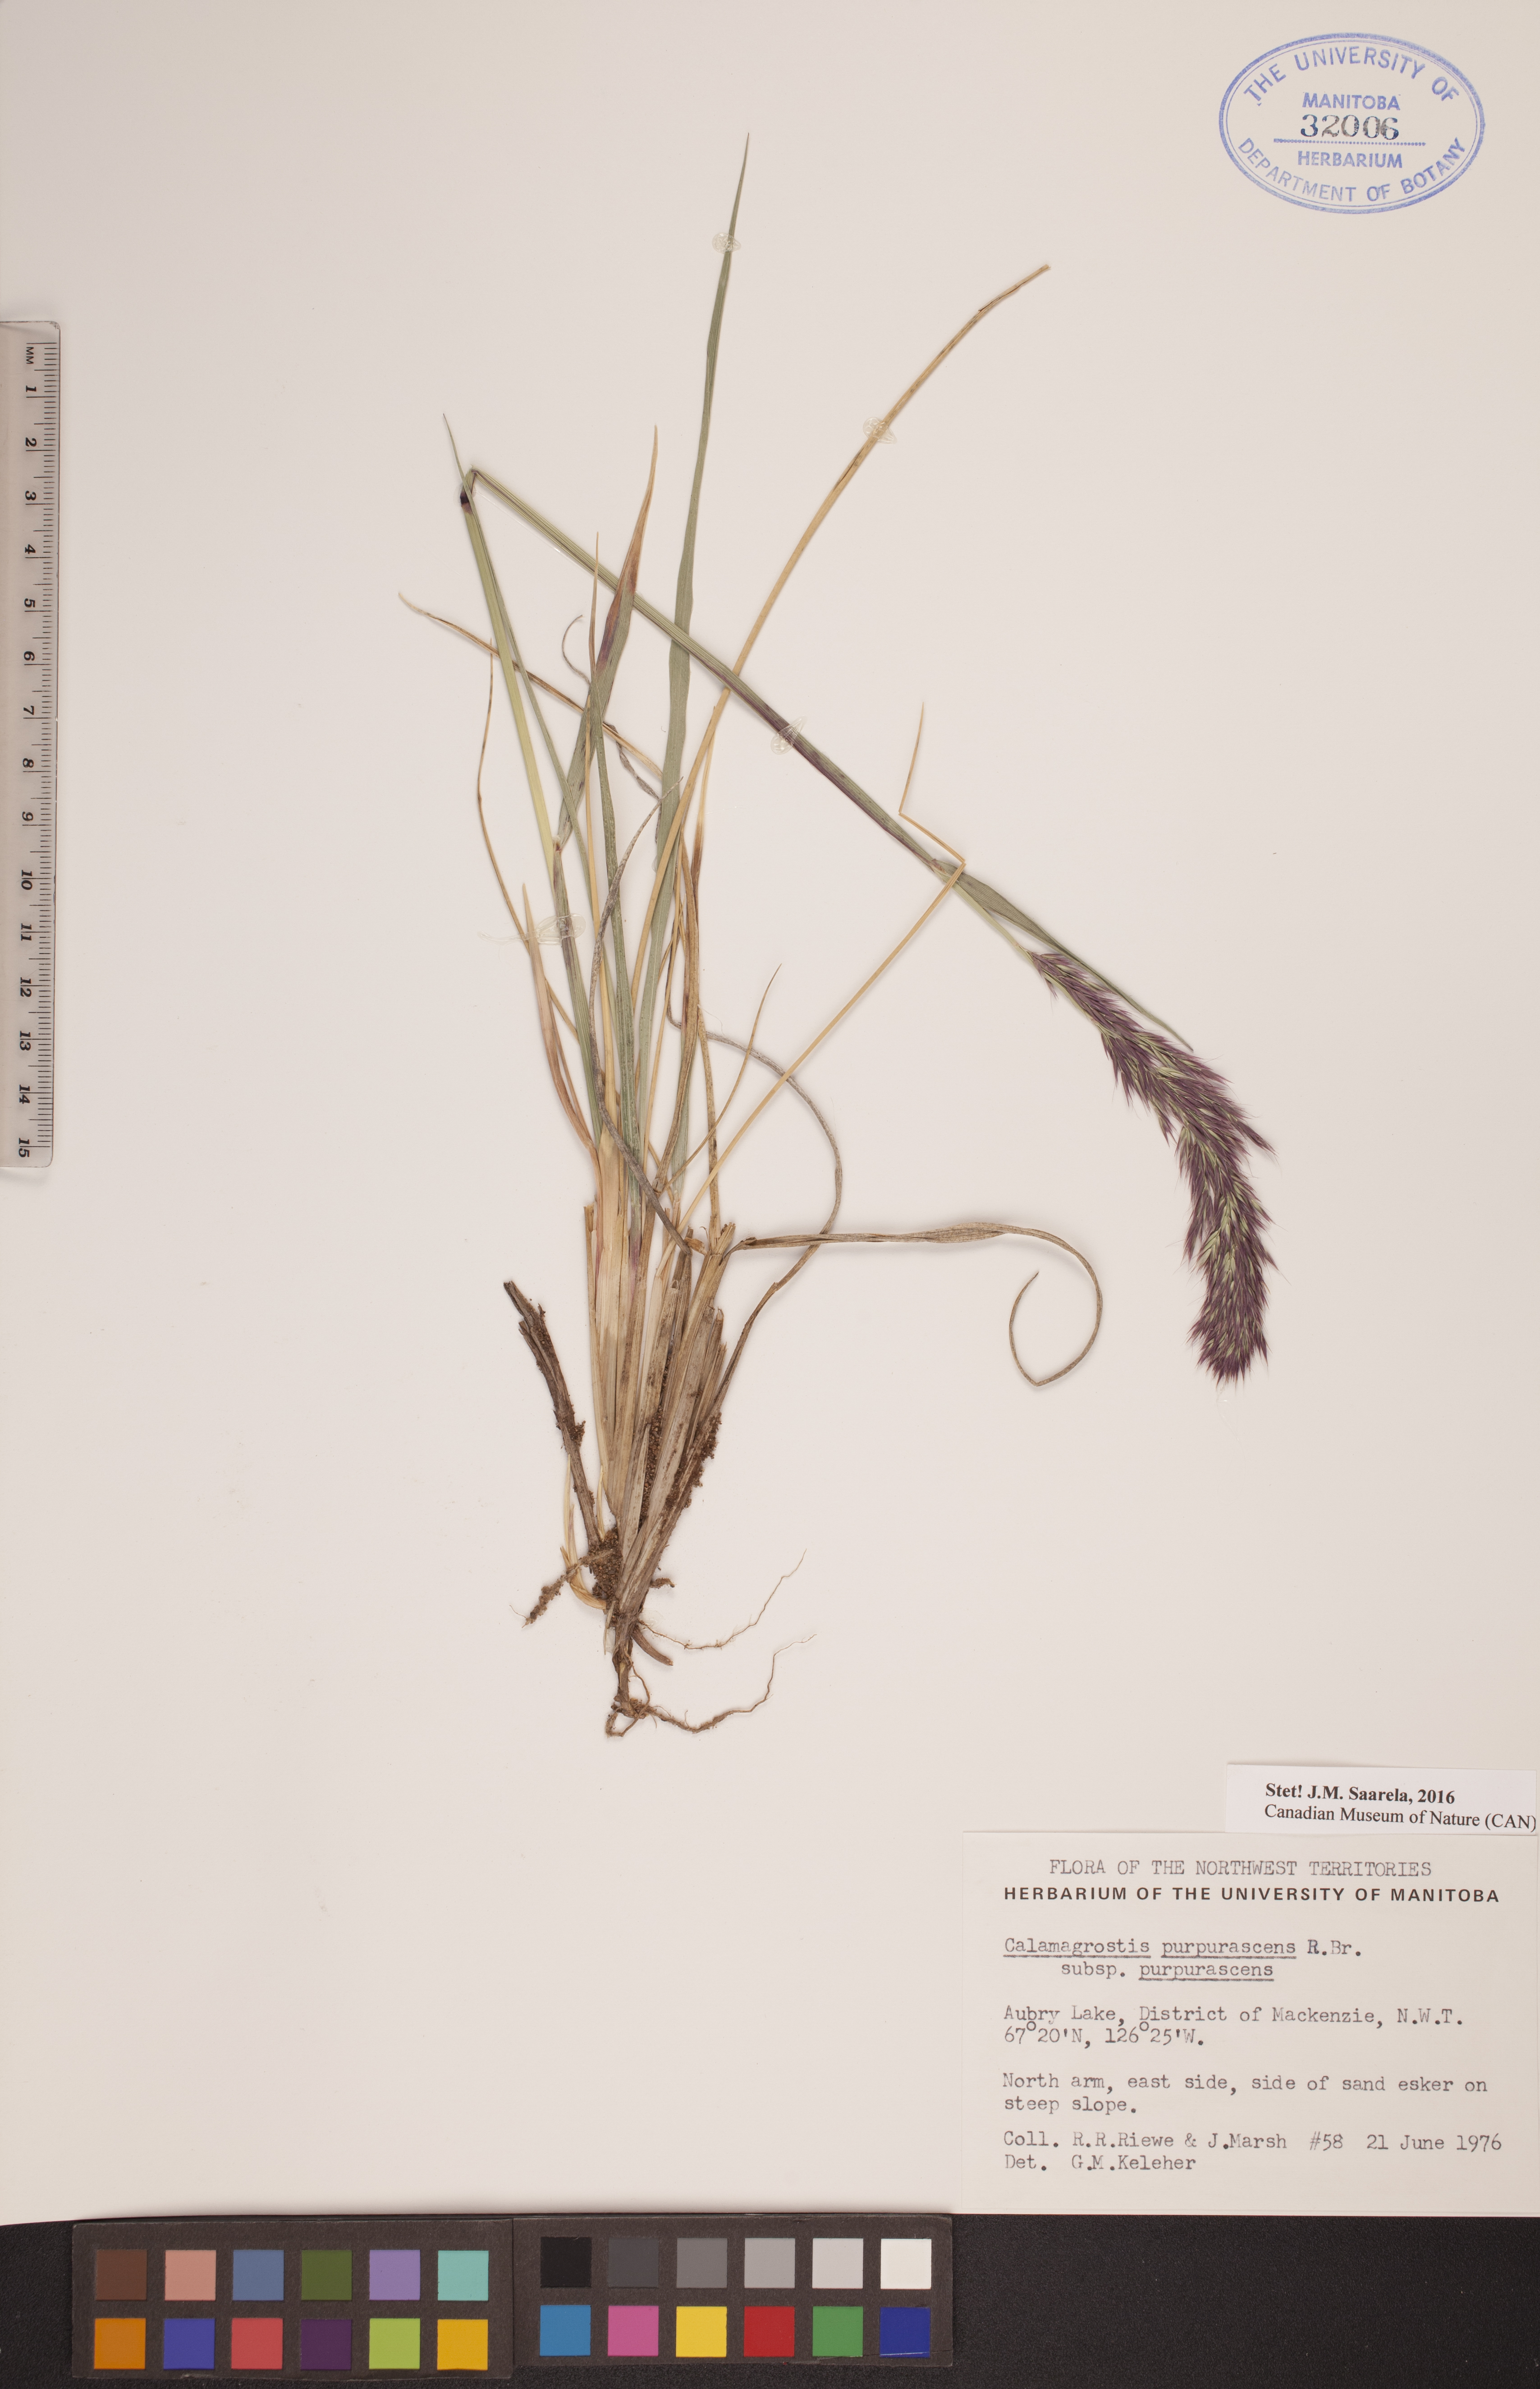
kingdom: Plantae
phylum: Tracheophyta
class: Liliopsida
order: Poales
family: Poaceae
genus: Calamagrostis
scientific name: Calamagrostis purpurascens
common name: Purple reedgrass
